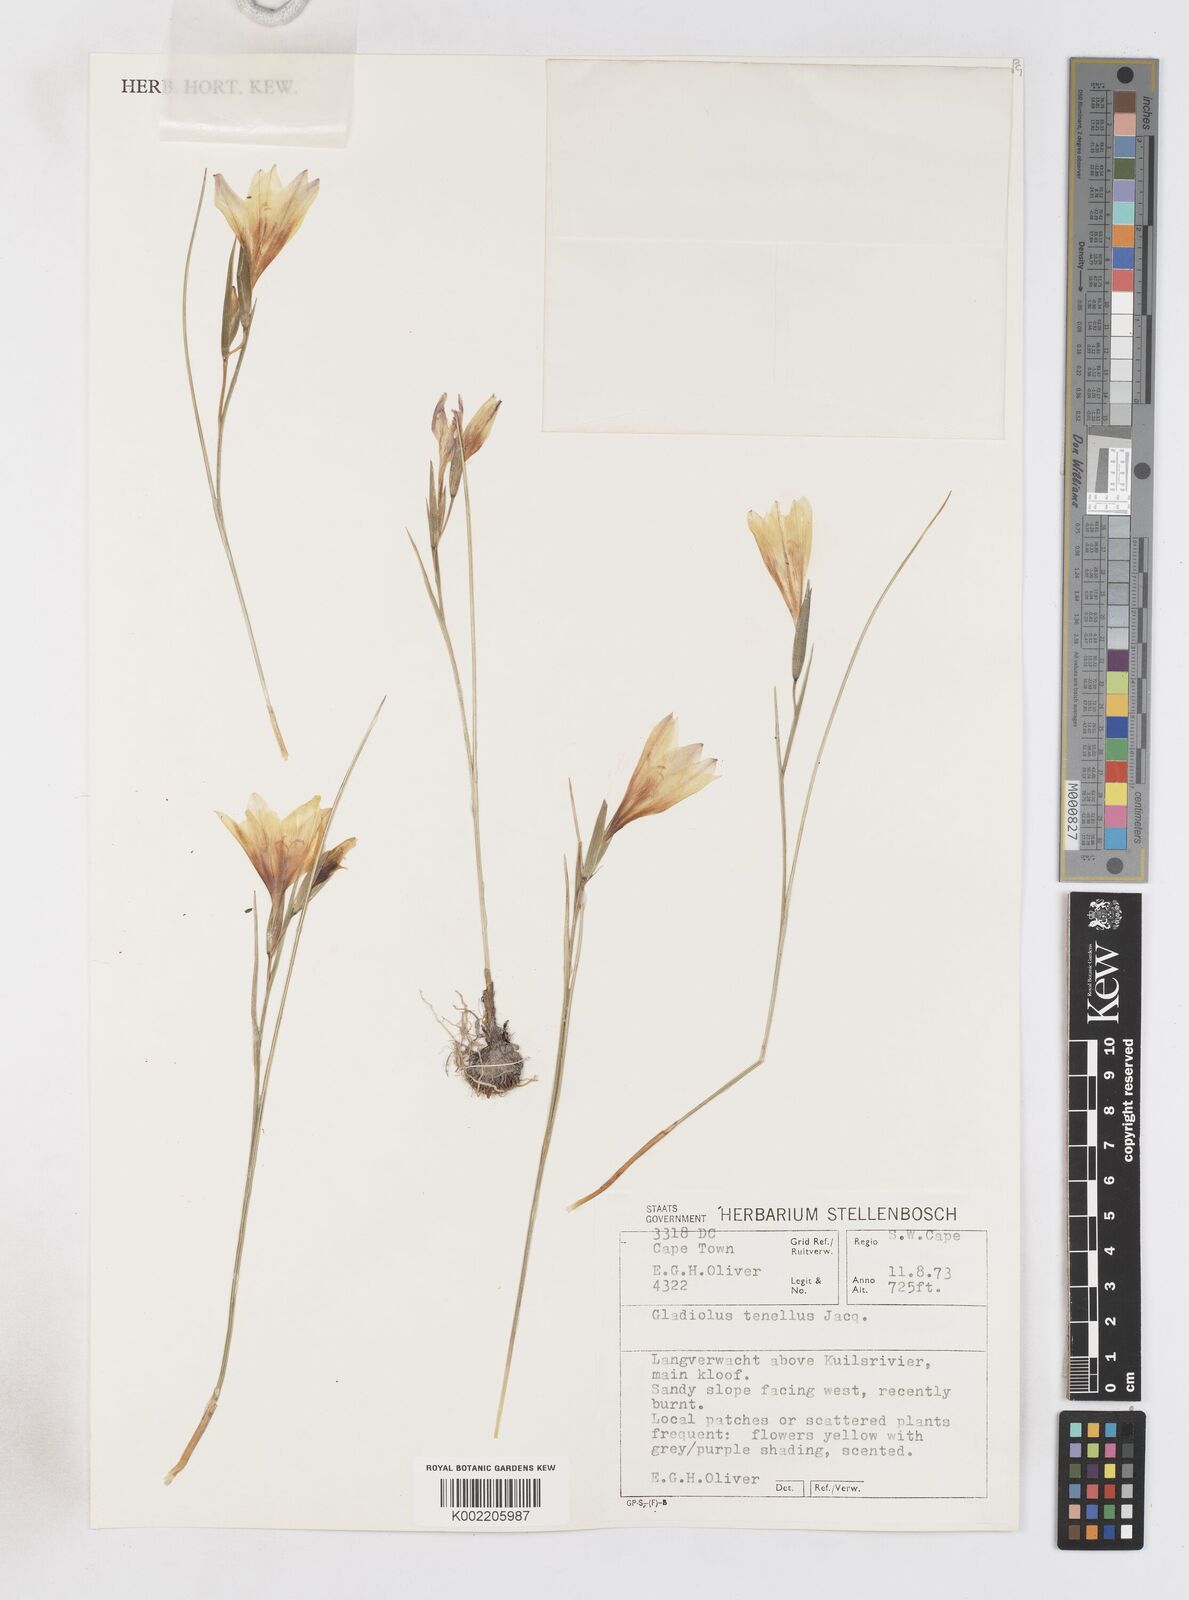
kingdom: Plantae
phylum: Tracheophyta
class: Liliopsida
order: Asparagales
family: Iridaceae
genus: Gladiolus
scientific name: Gladiolus carinatus
